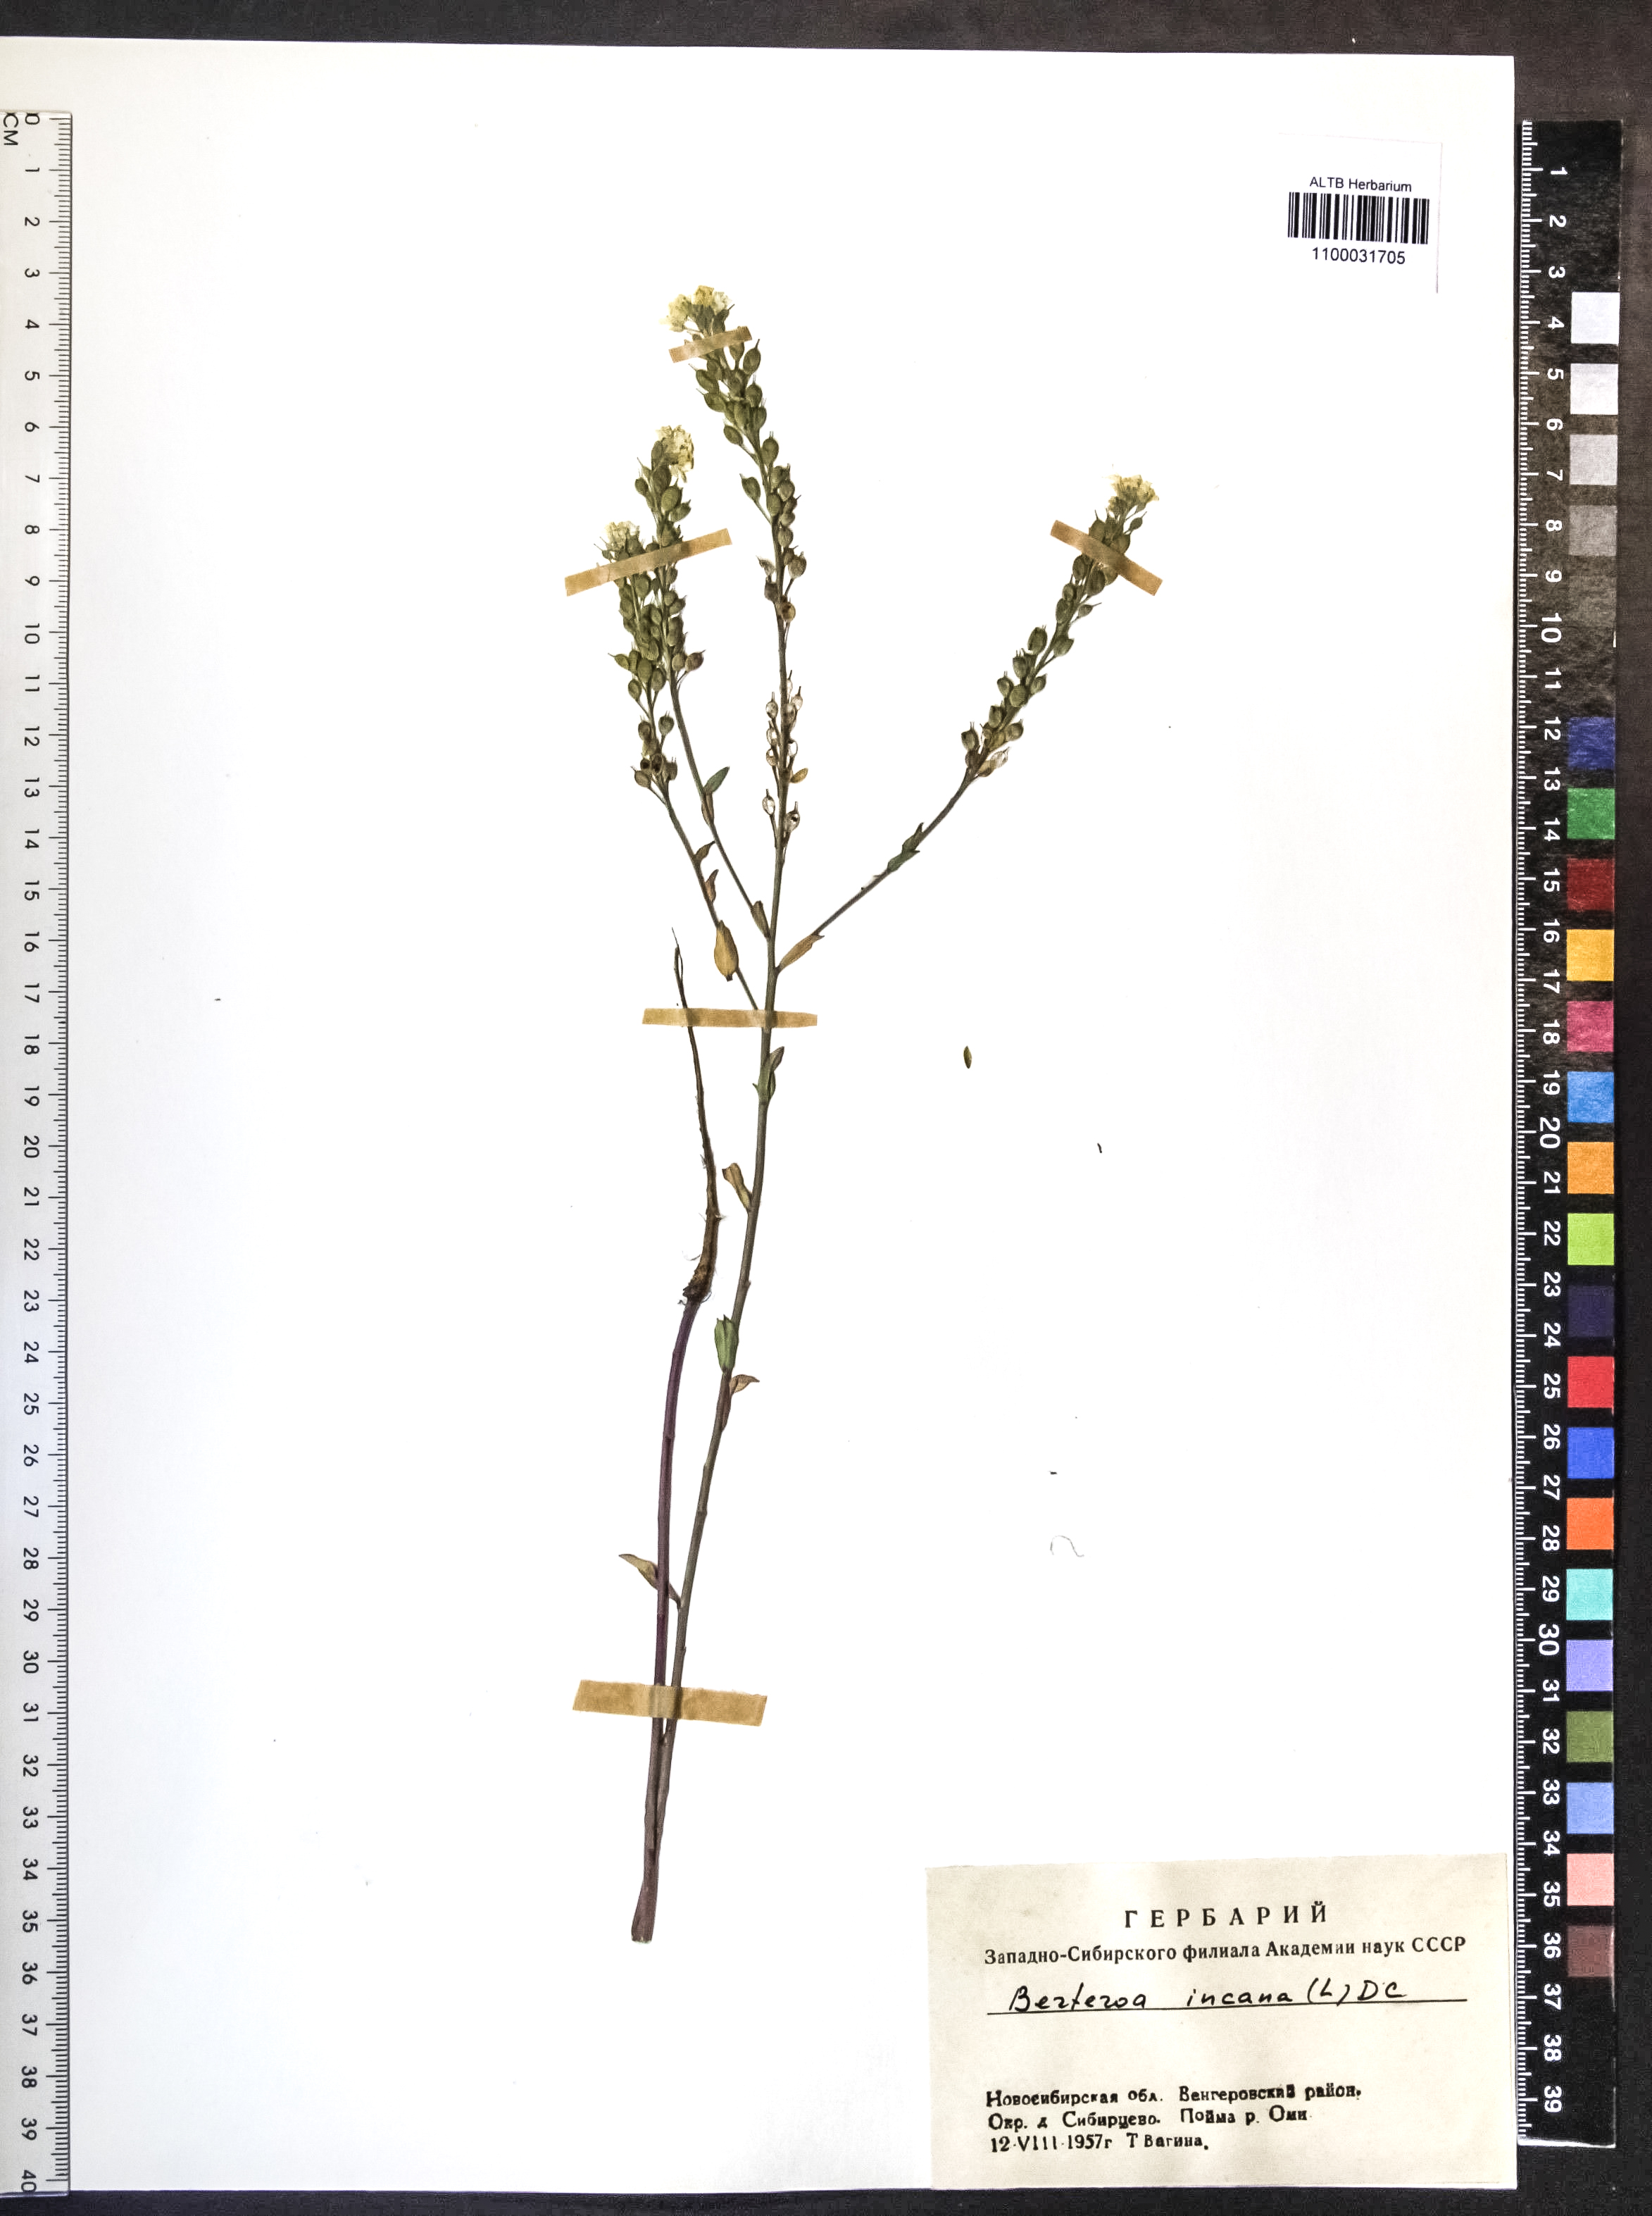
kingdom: Plantae
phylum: Tracheophyta
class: Magnoliopsida
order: Brassicales
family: Brassicaceae
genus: Berteroa
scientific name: Berteroa incana
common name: Hoary alison
